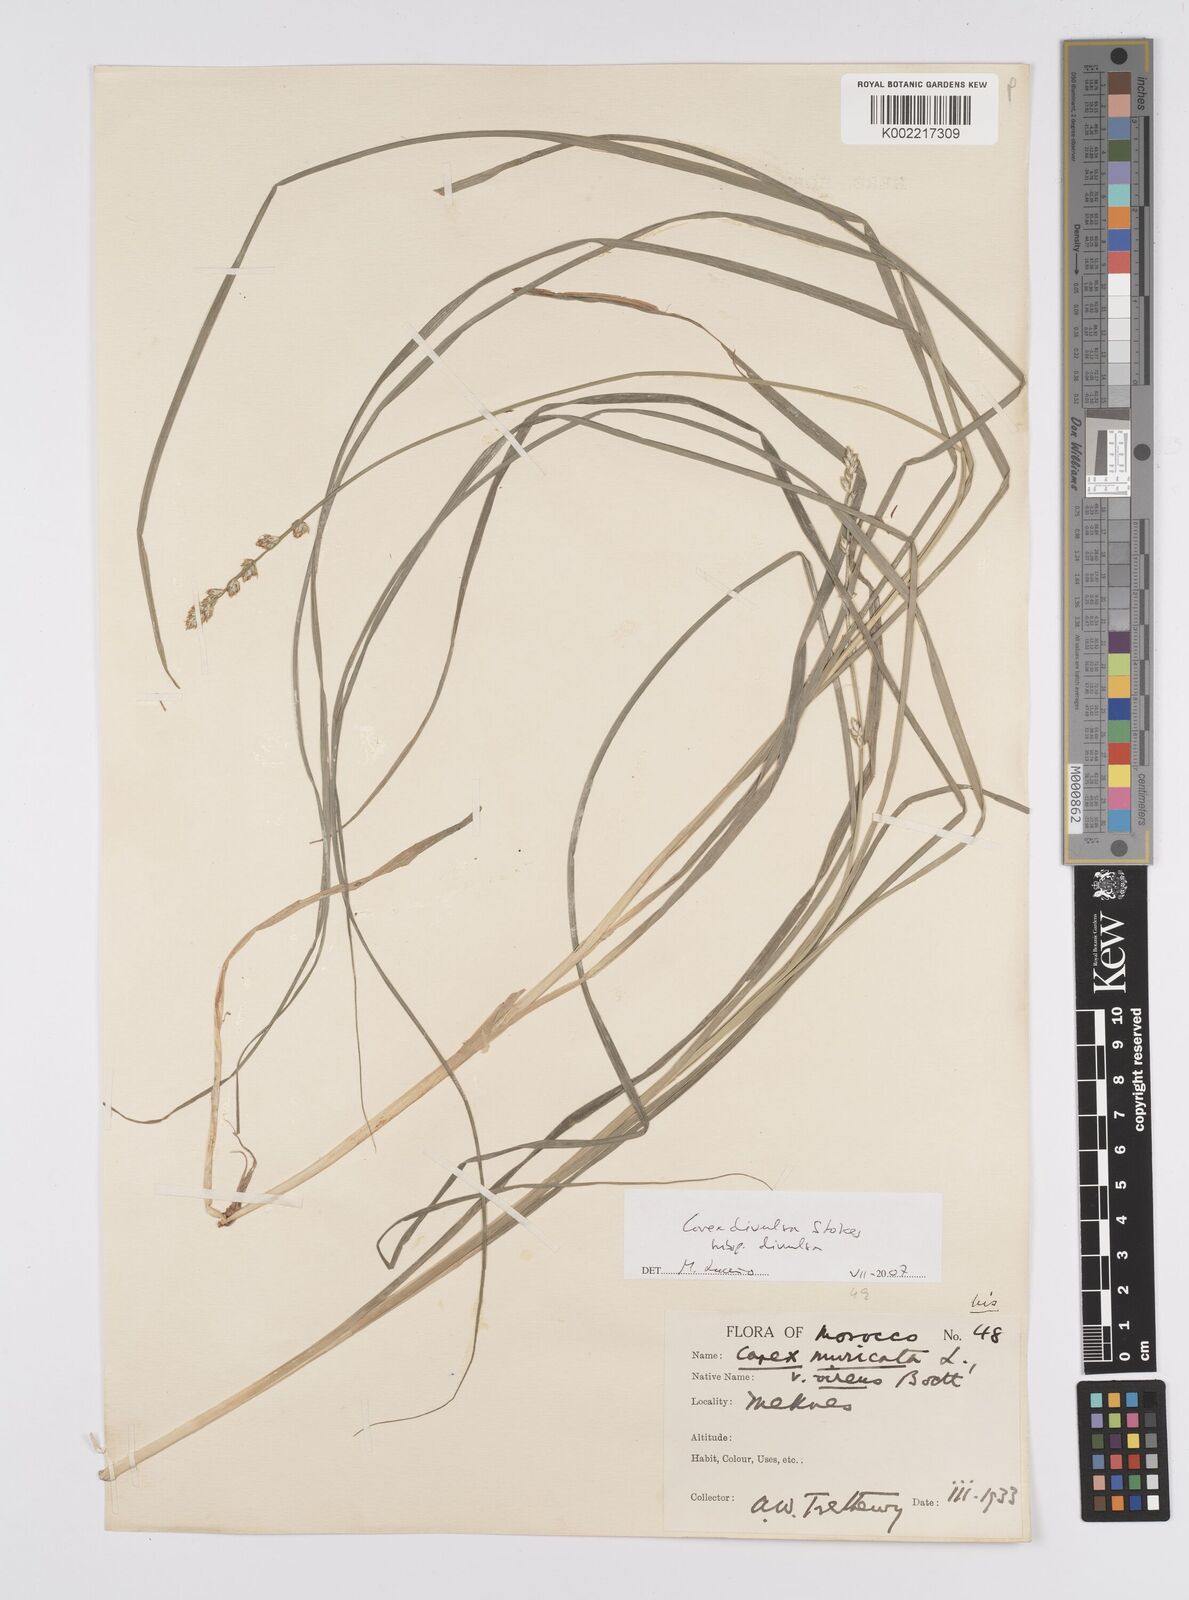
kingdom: Plantae
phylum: Tracheophyta
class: Liliopsida
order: Poales
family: Cyperaceae
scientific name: Cyperaceae
